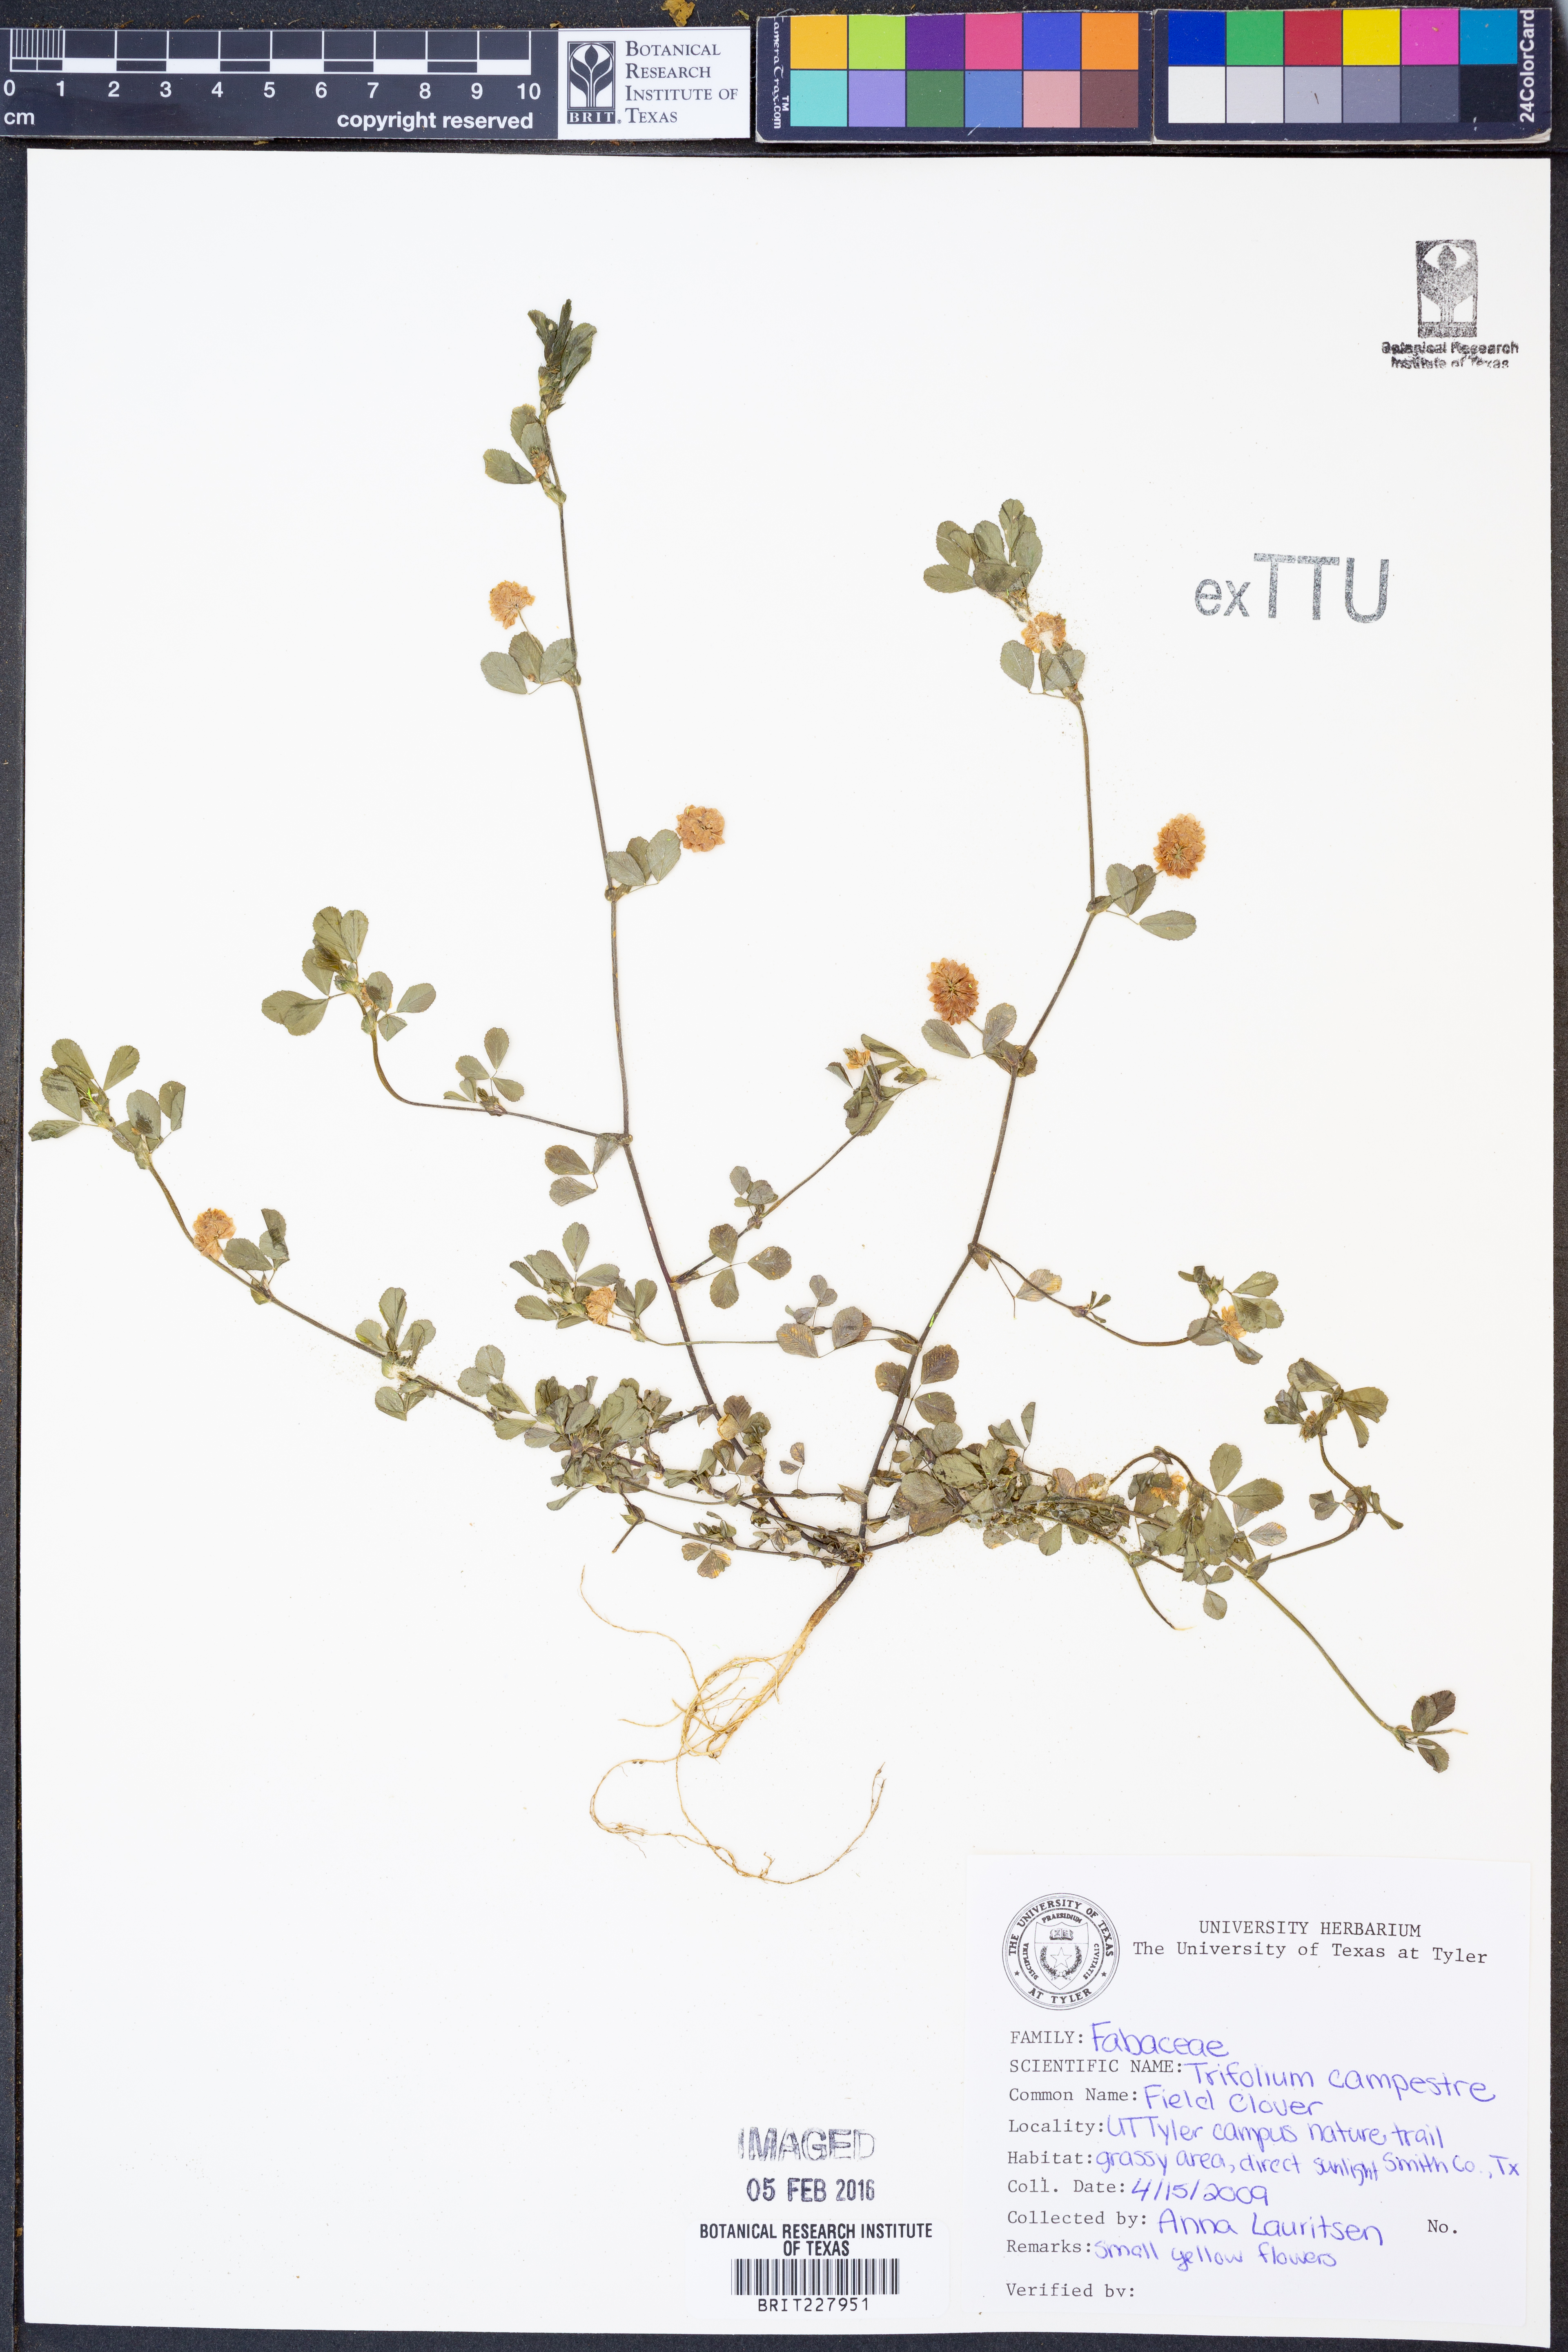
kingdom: Plantae
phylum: Tracheophyta
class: Magnoliopsida
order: Fabales
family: Fabaceae
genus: Trifolium
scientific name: Trifolium campestre
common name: Field clover
